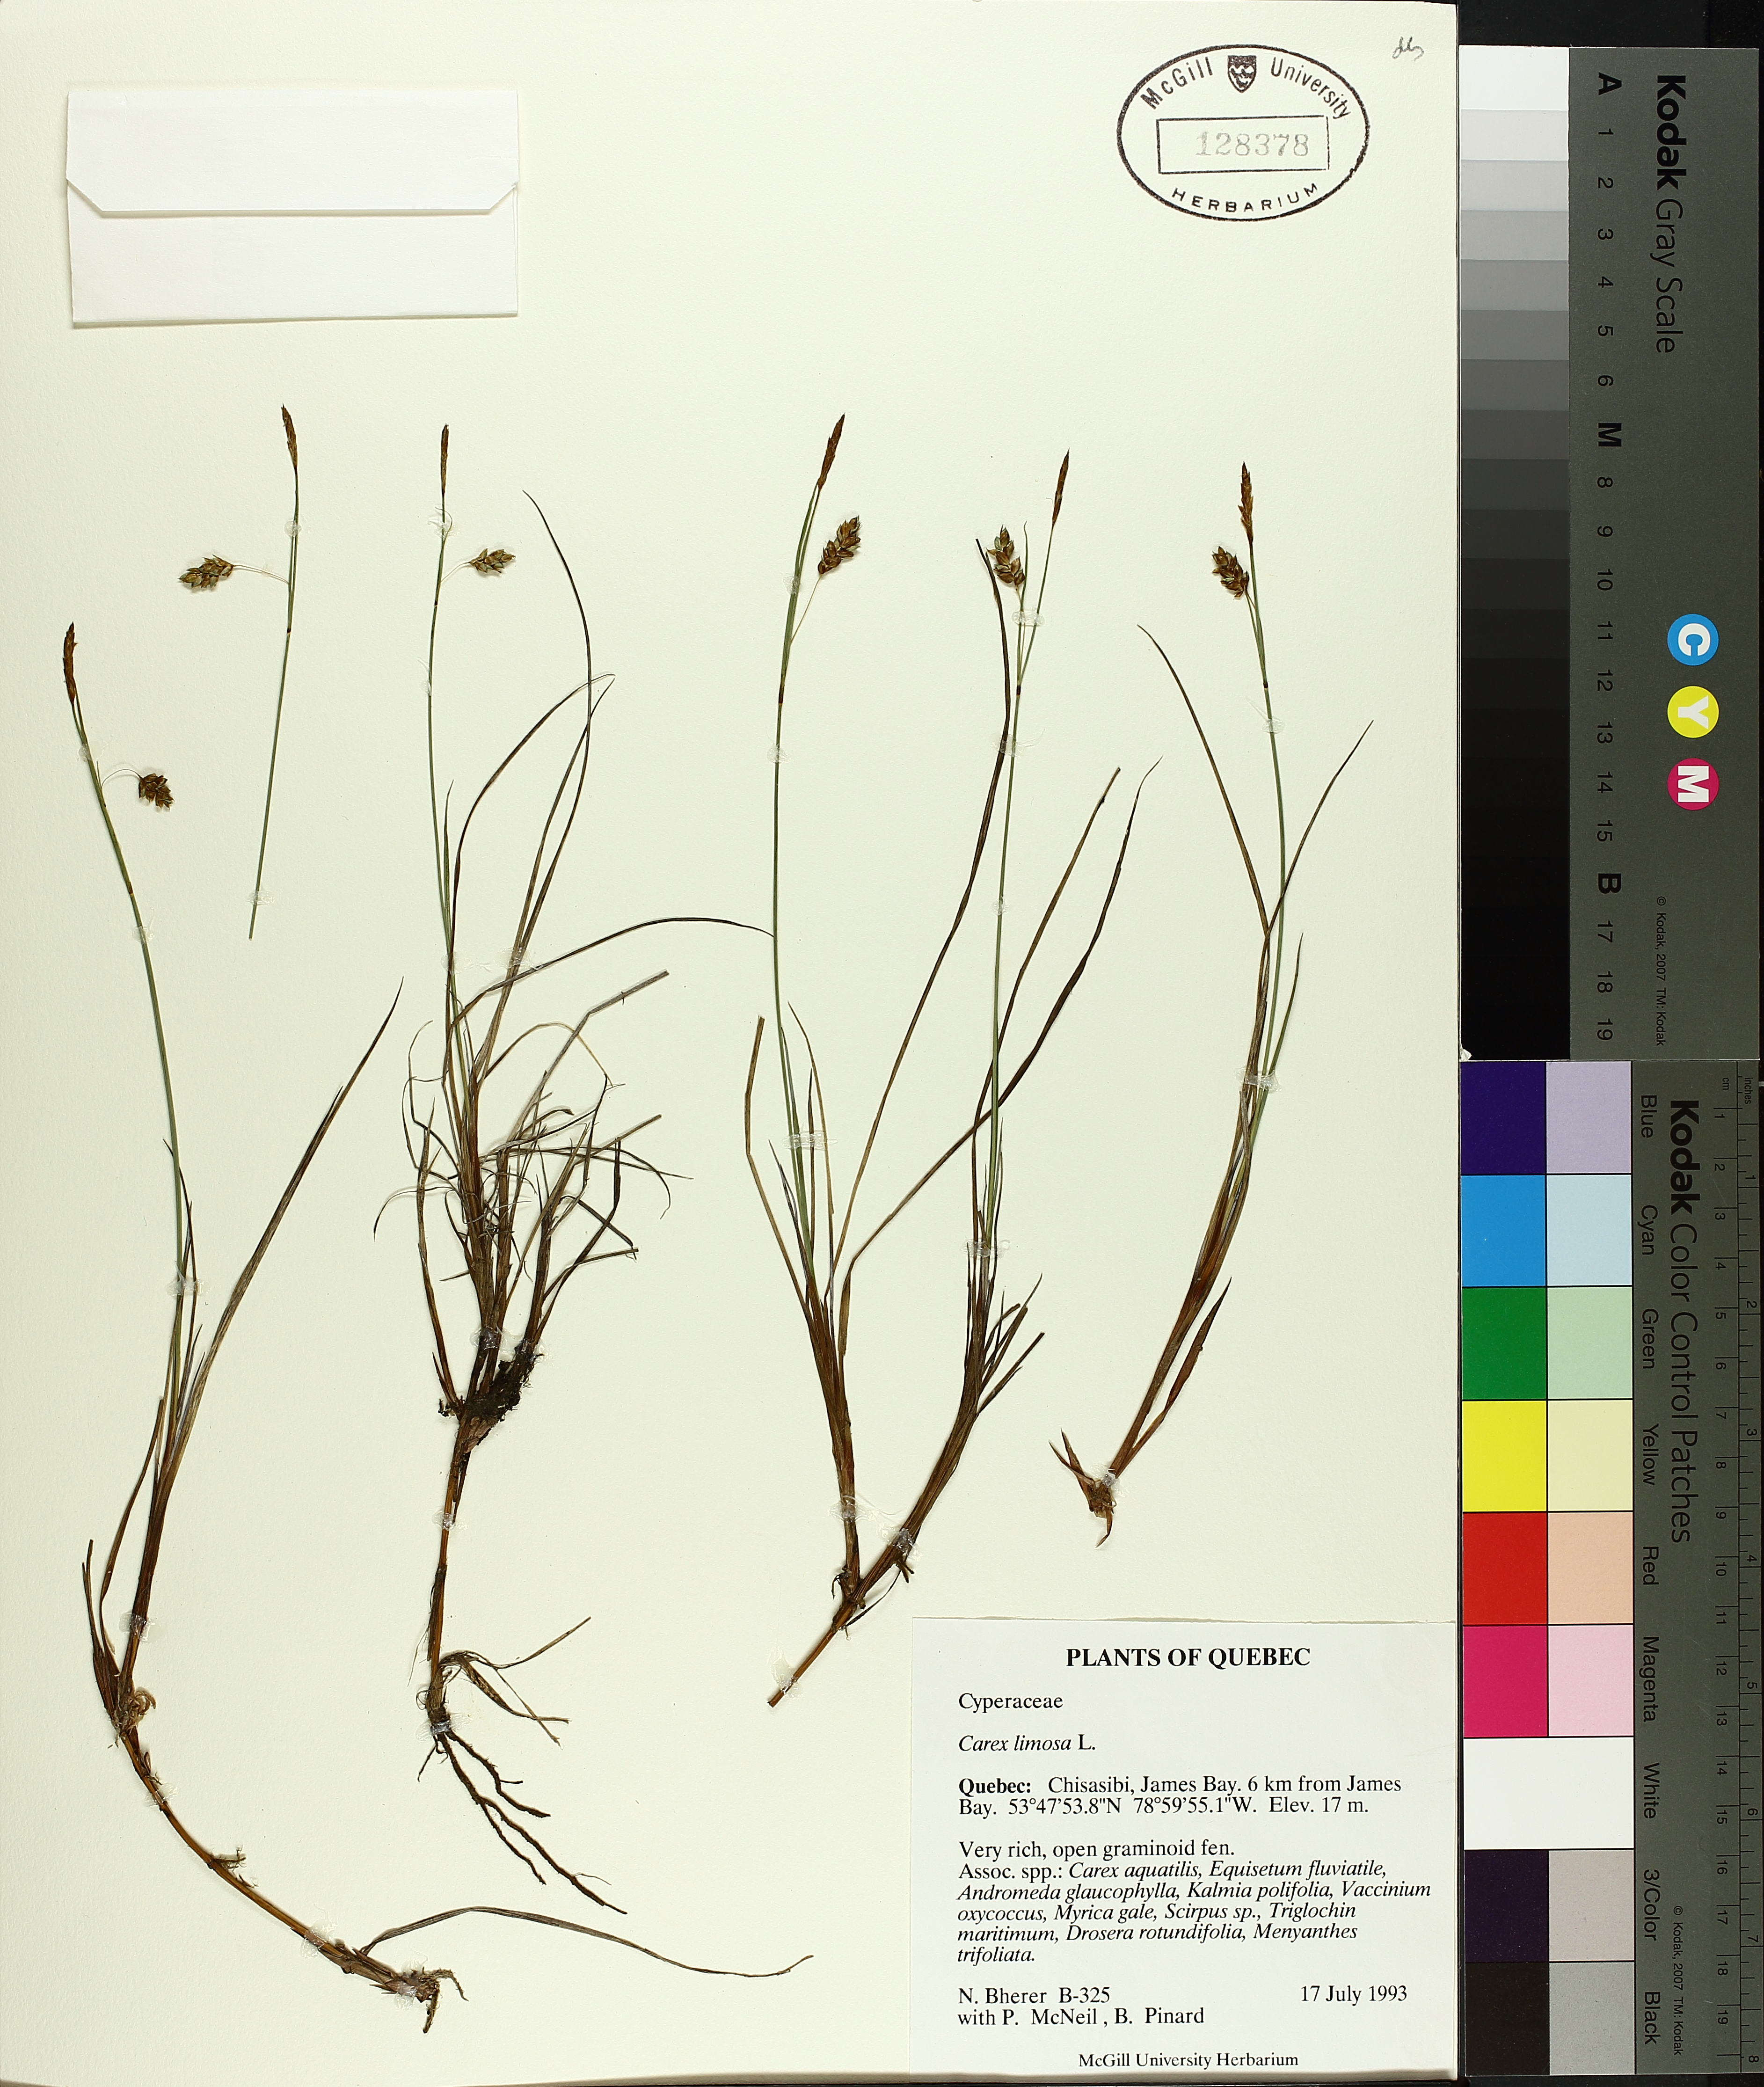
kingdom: Plantae
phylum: Tracheophyta
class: Liliopsida
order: Poales
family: Cyperaceae
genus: Carex
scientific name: Carex limosa
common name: Bog sedge
